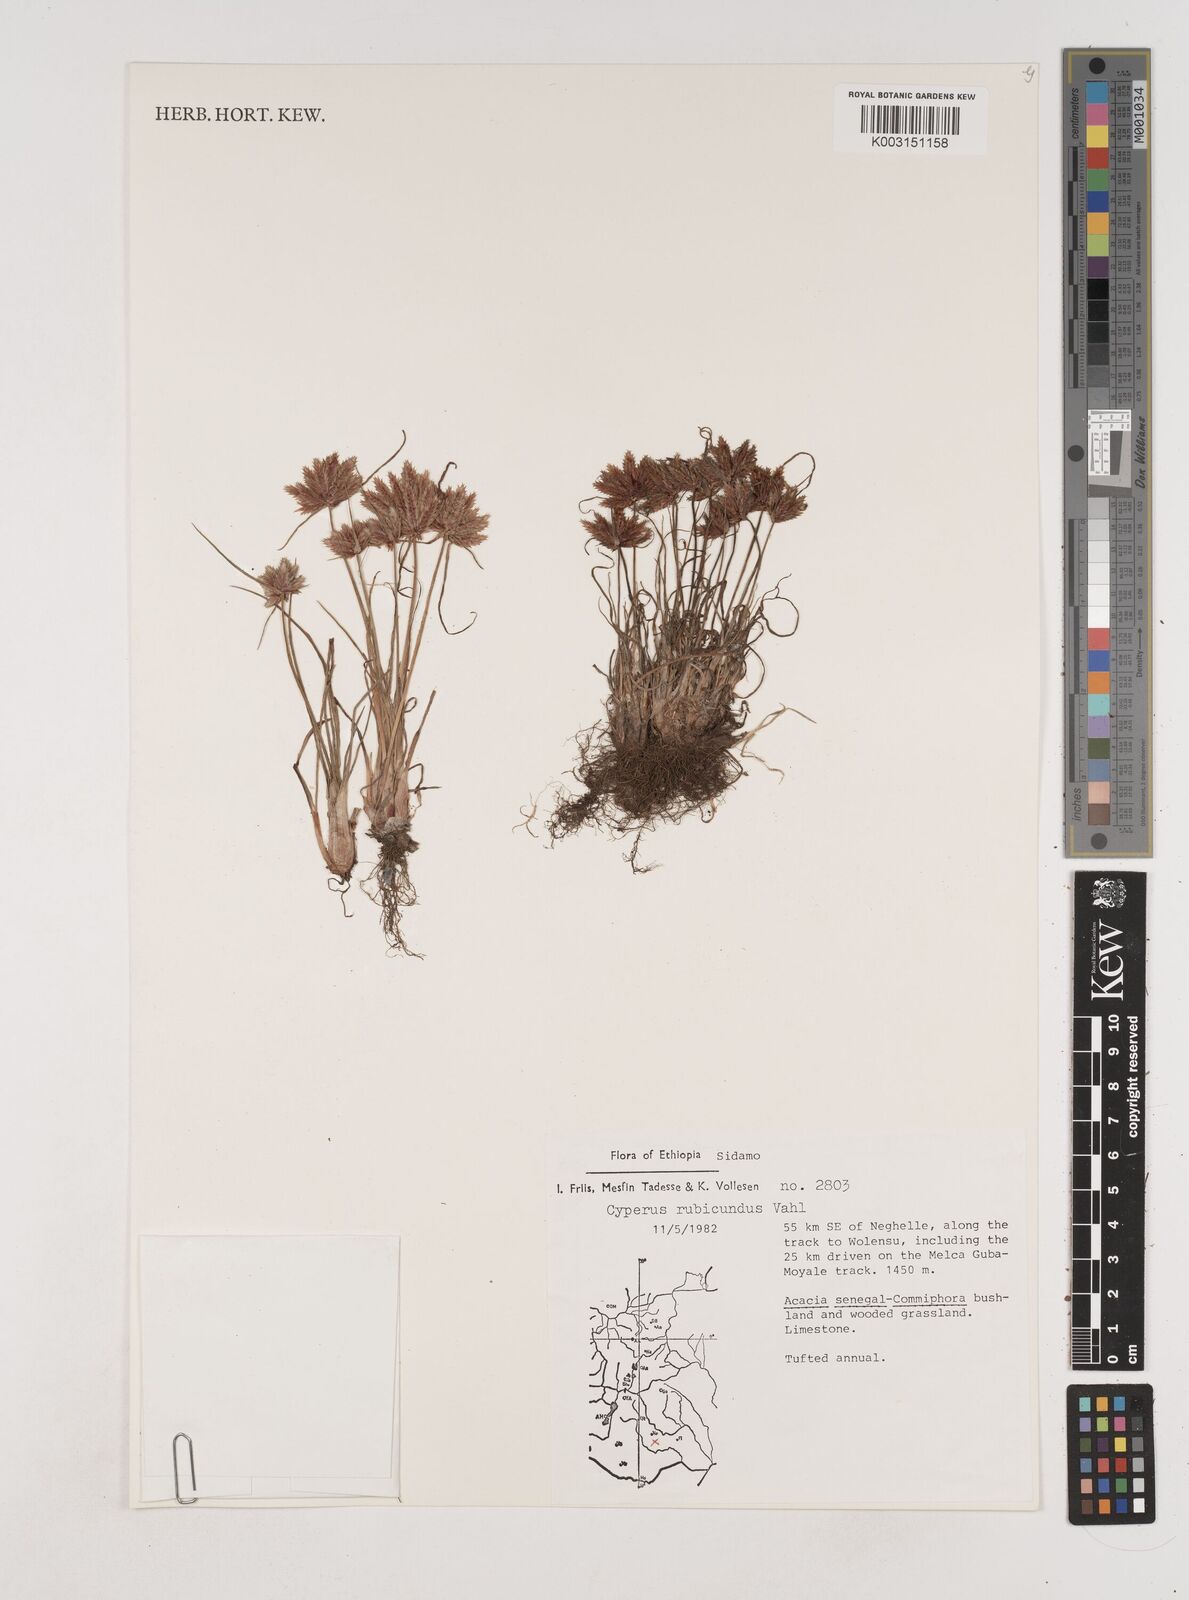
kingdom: Plantae
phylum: Tracheophyta
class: Liliopsida
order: Poales
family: Cyperaceae
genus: Cyperus
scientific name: Cyperus rubicundus
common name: Coco-grass
